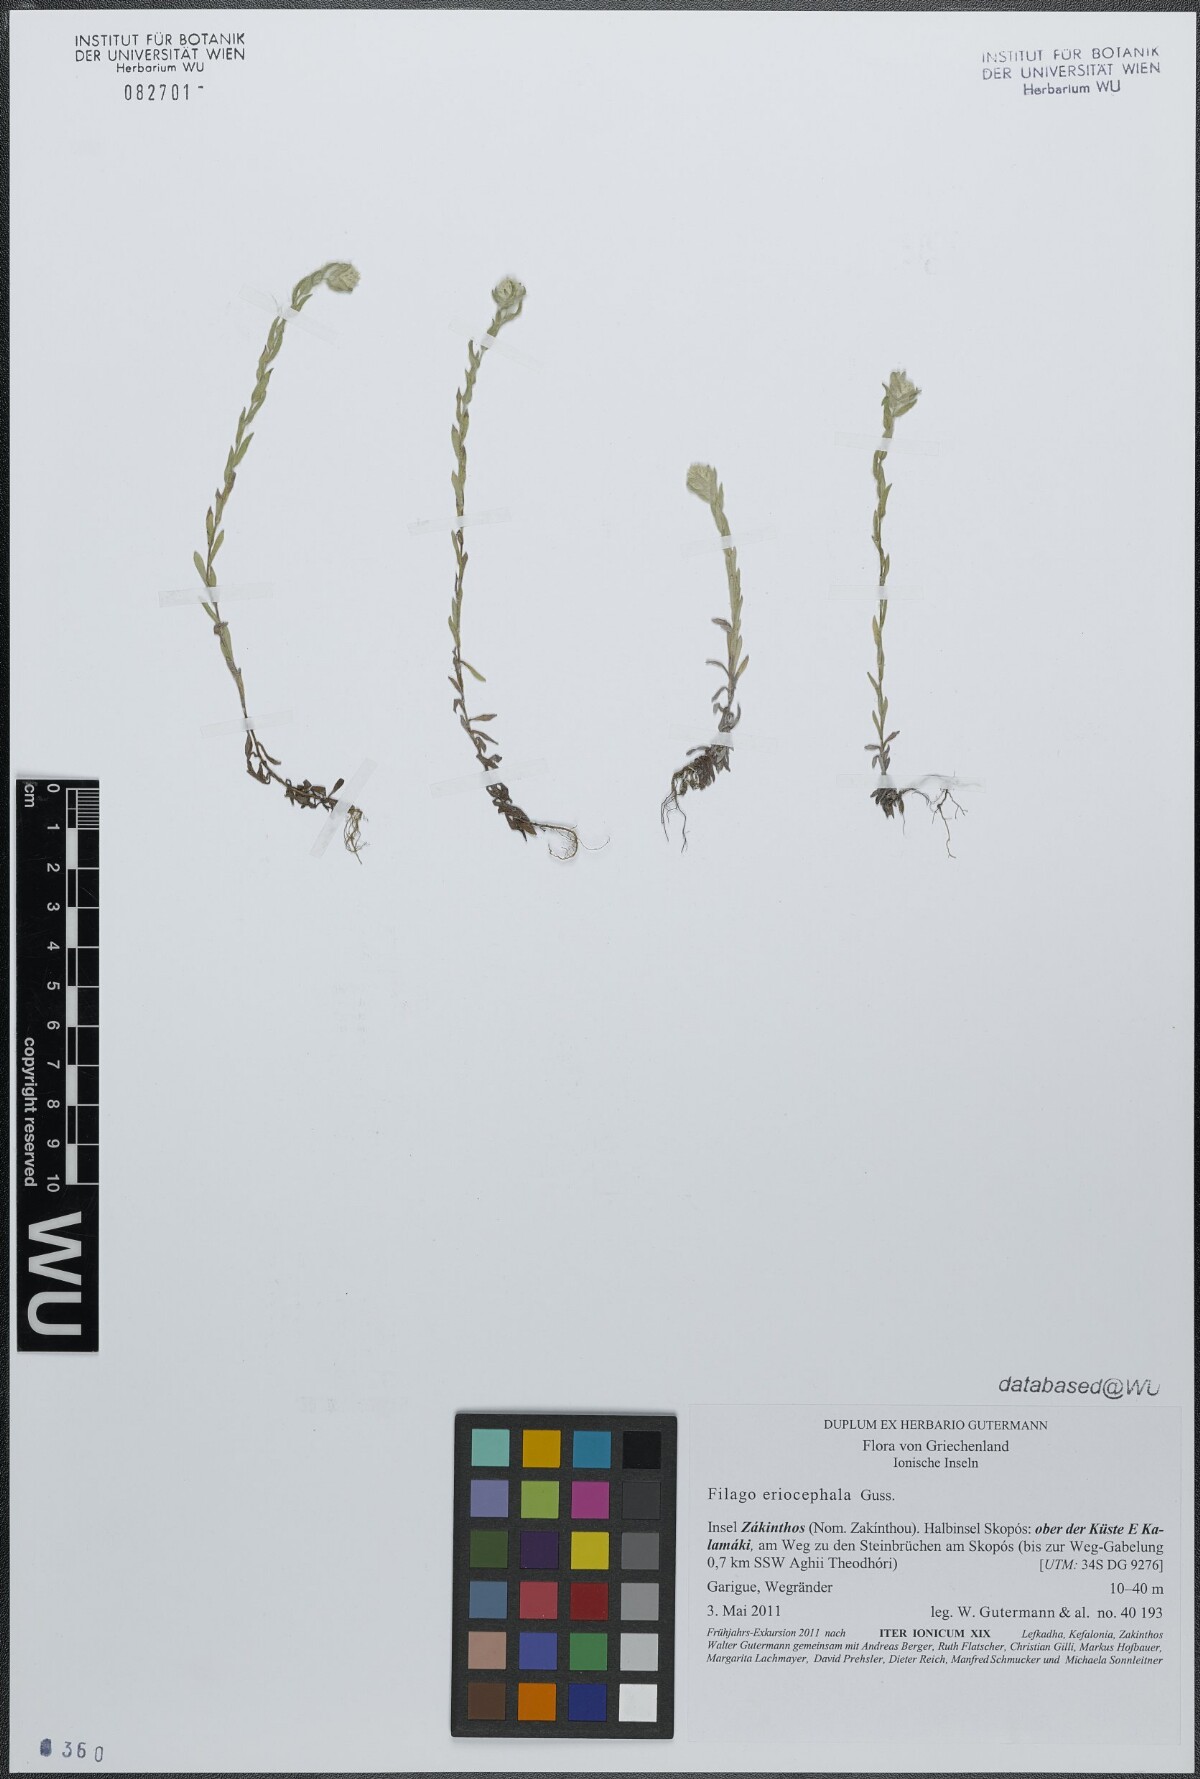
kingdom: Plantae
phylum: Tracheophyta
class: Magnoliopsida
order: Asterales
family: Asteraceae
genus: Filago
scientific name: Filago eriocephala
